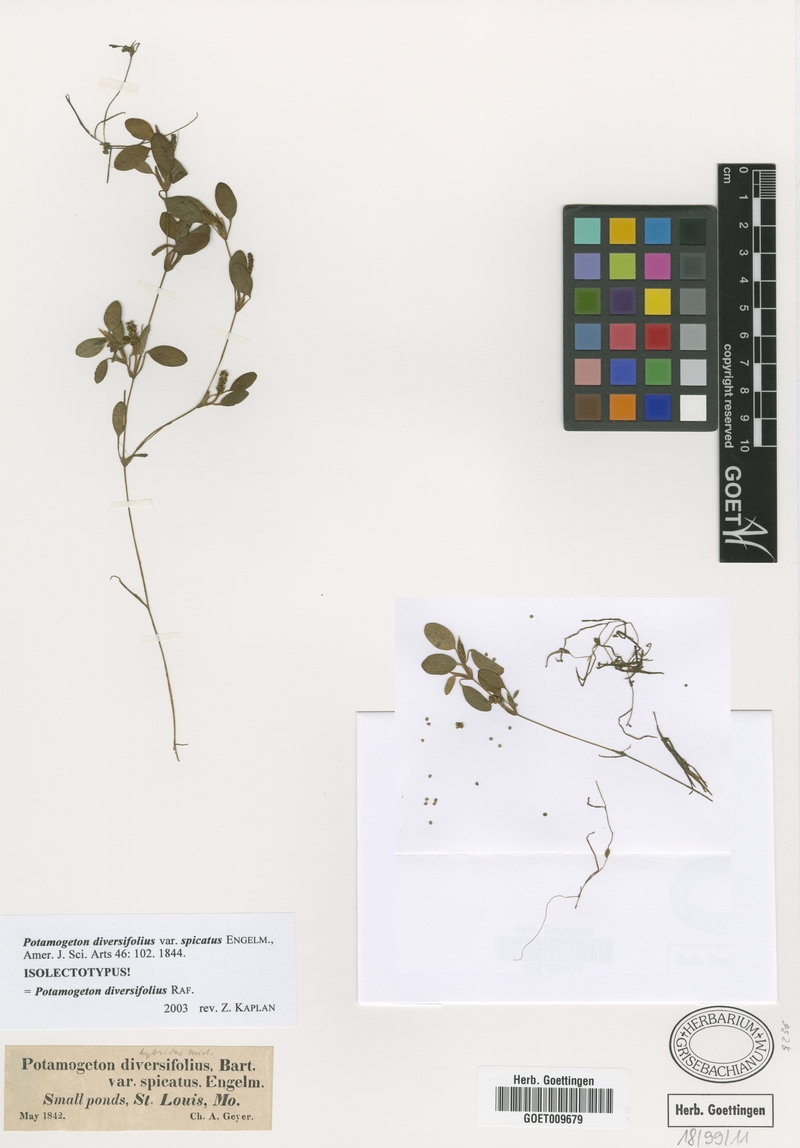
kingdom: Plantae
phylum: Tracheophyta
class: Liliopsida
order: Alismatales
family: Potamogetonaceae
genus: Potamogeton
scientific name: Potamogeton diversifolius
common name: Water-thread pondweed
